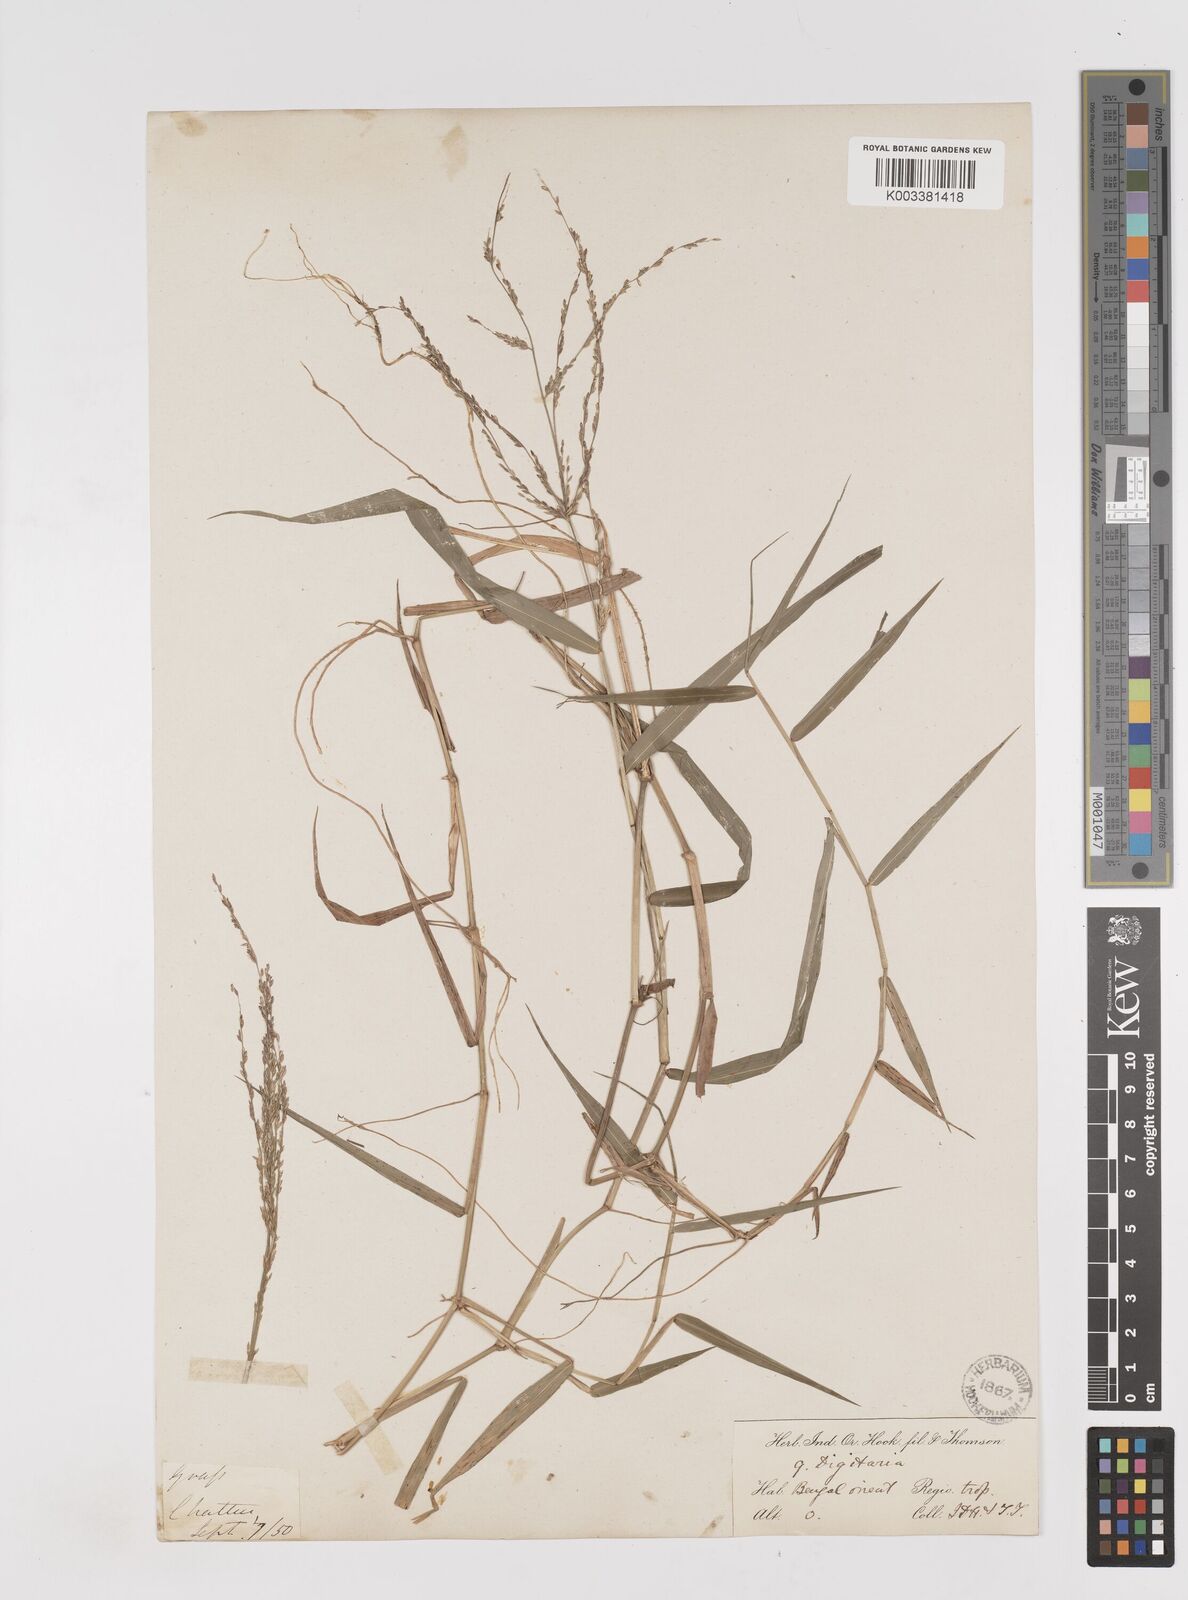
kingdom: Plantae
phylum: Tracheophyta
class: Liliopsida
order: Poales
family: Poaceae
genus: Ottochloa
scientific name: Ottochloa nodosa
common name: Slender-panic grass
